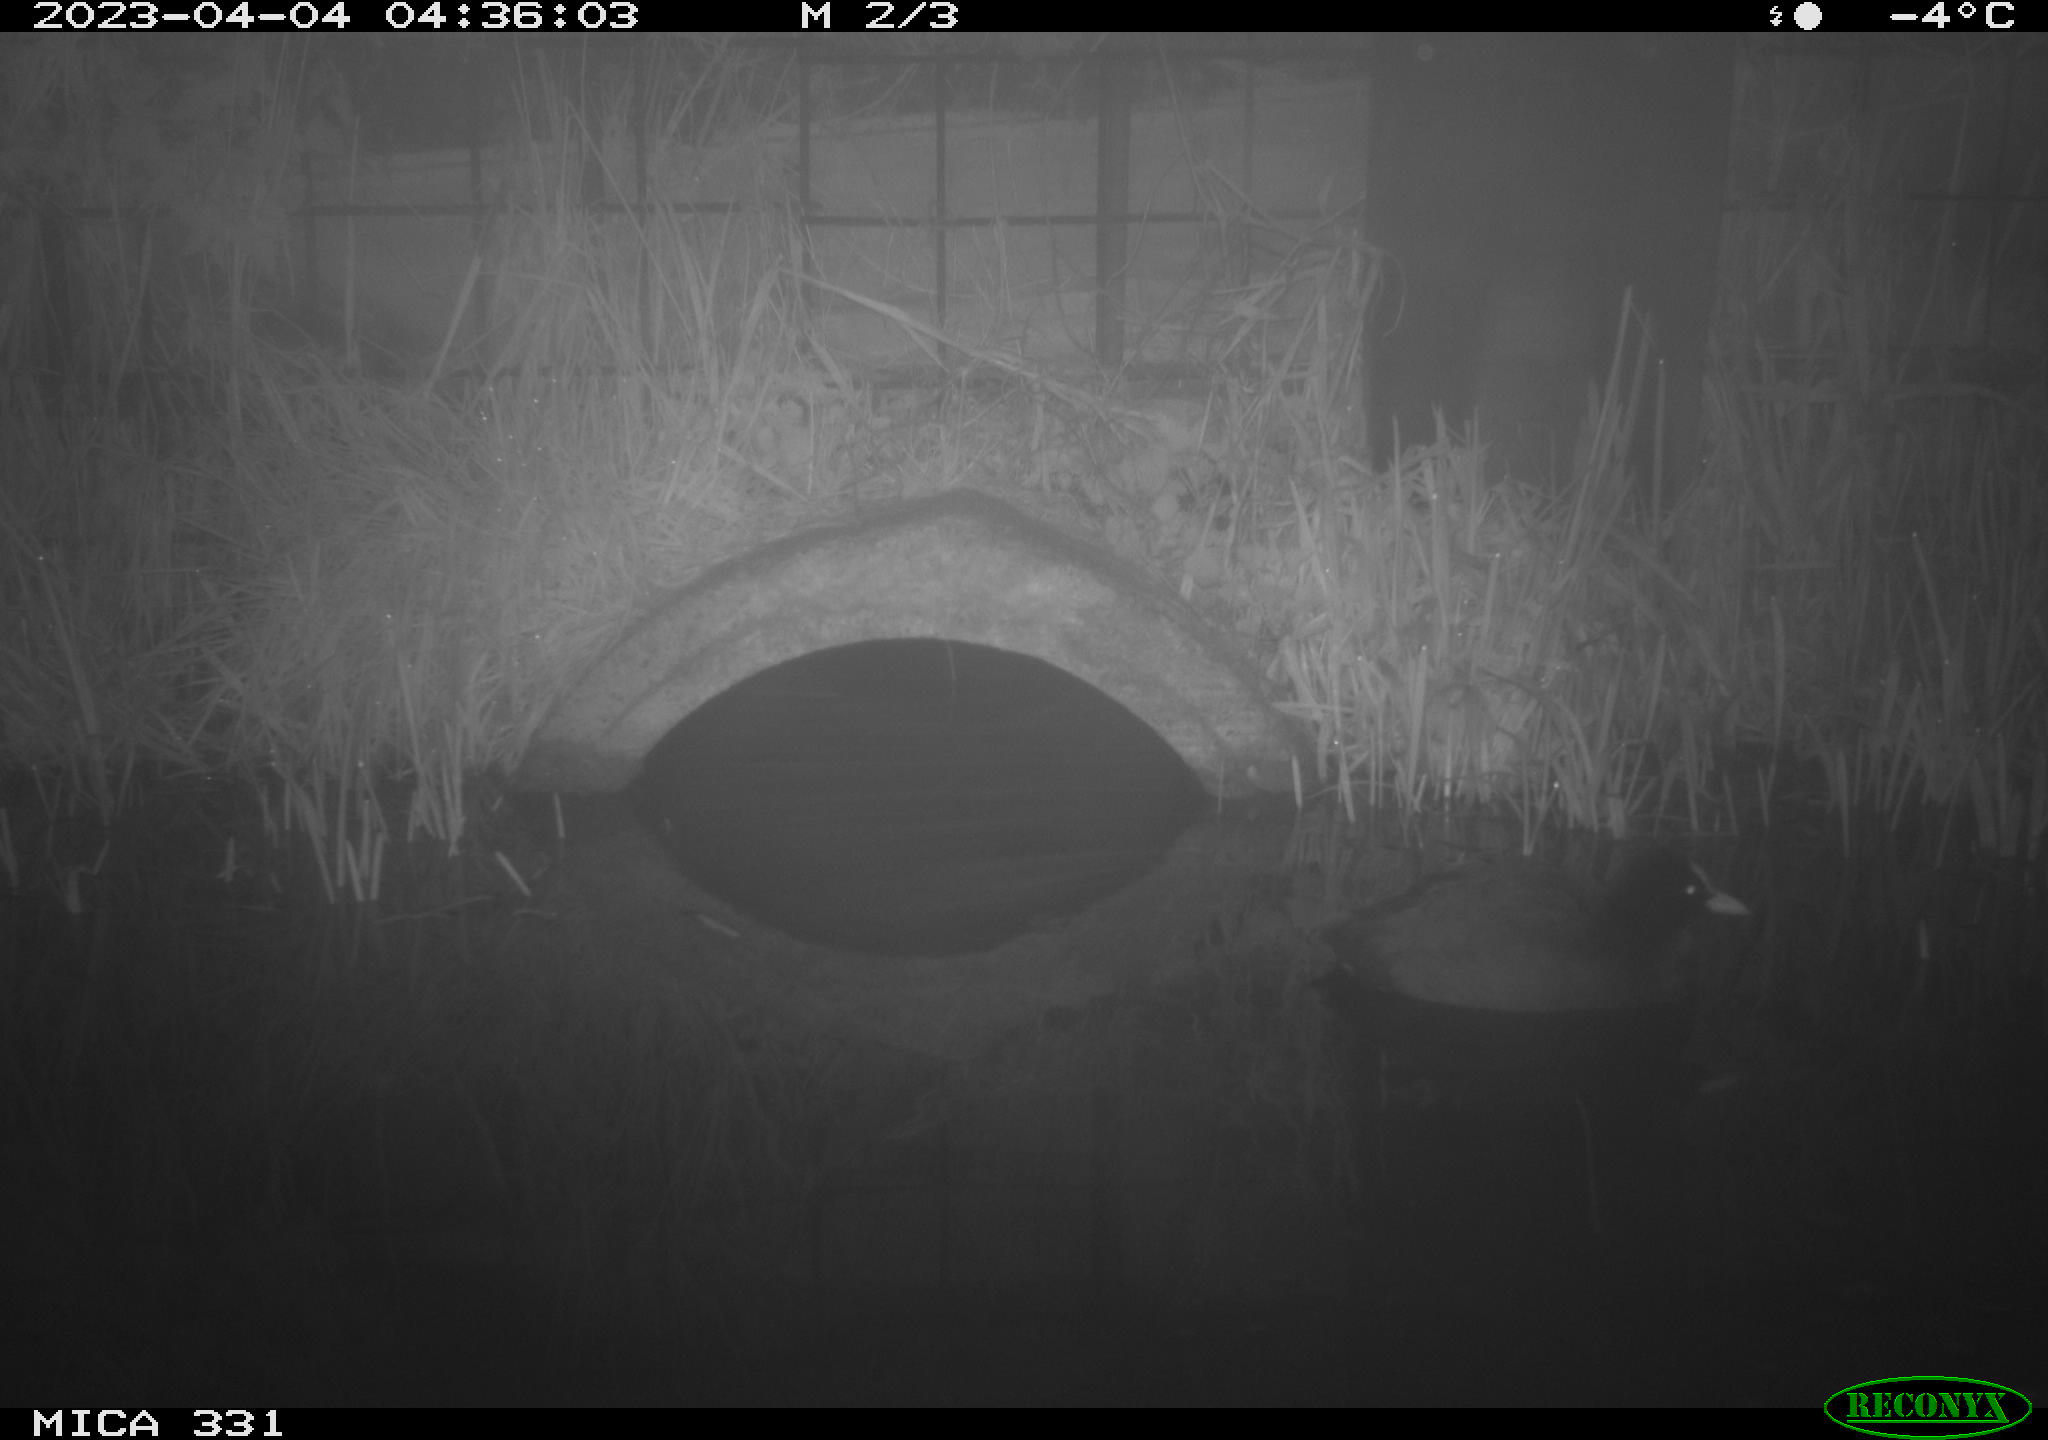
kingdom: Animalia
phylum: Chordata
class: Aves
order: Gruiformes
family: Rallidae
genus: Fulica
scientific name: Fulica atra
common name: Eurasian coot
